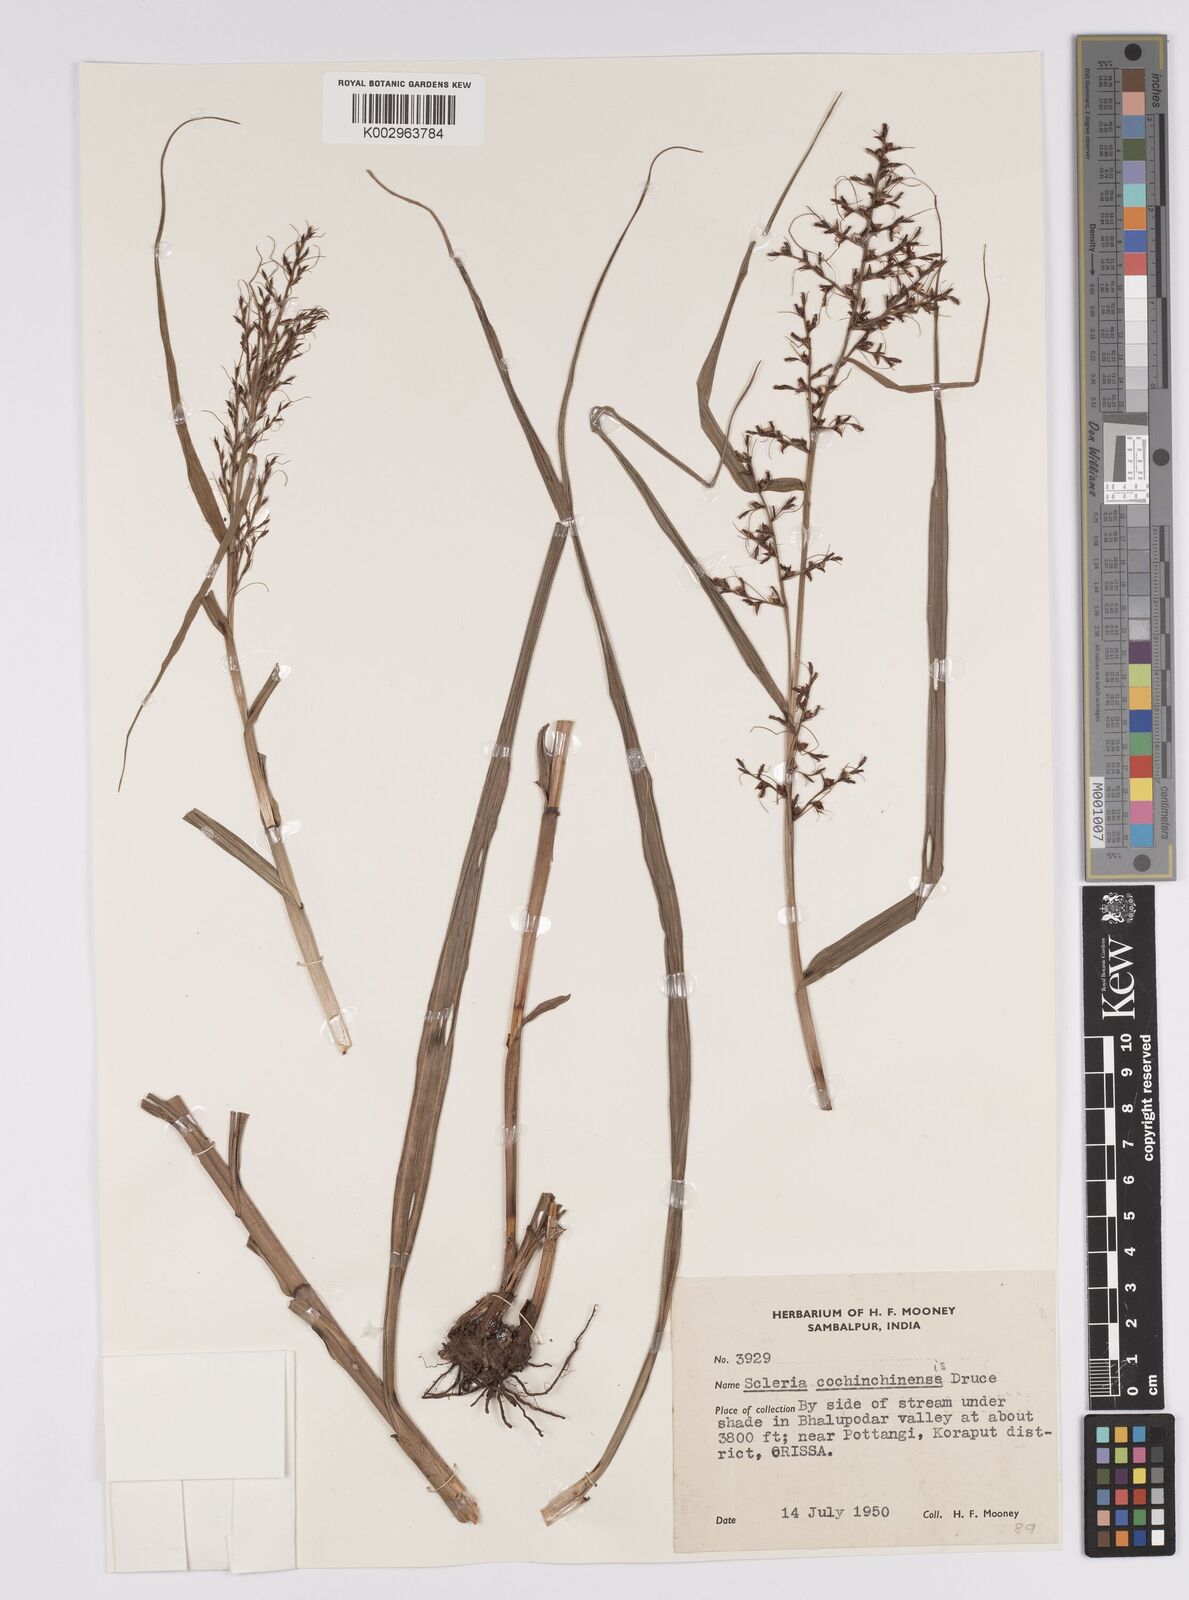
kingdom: Plantae
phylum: Tracheophyta
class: Liliopsida
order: Poales
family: Cyperaceae
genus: Scleria
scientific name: Scleria terrestris
